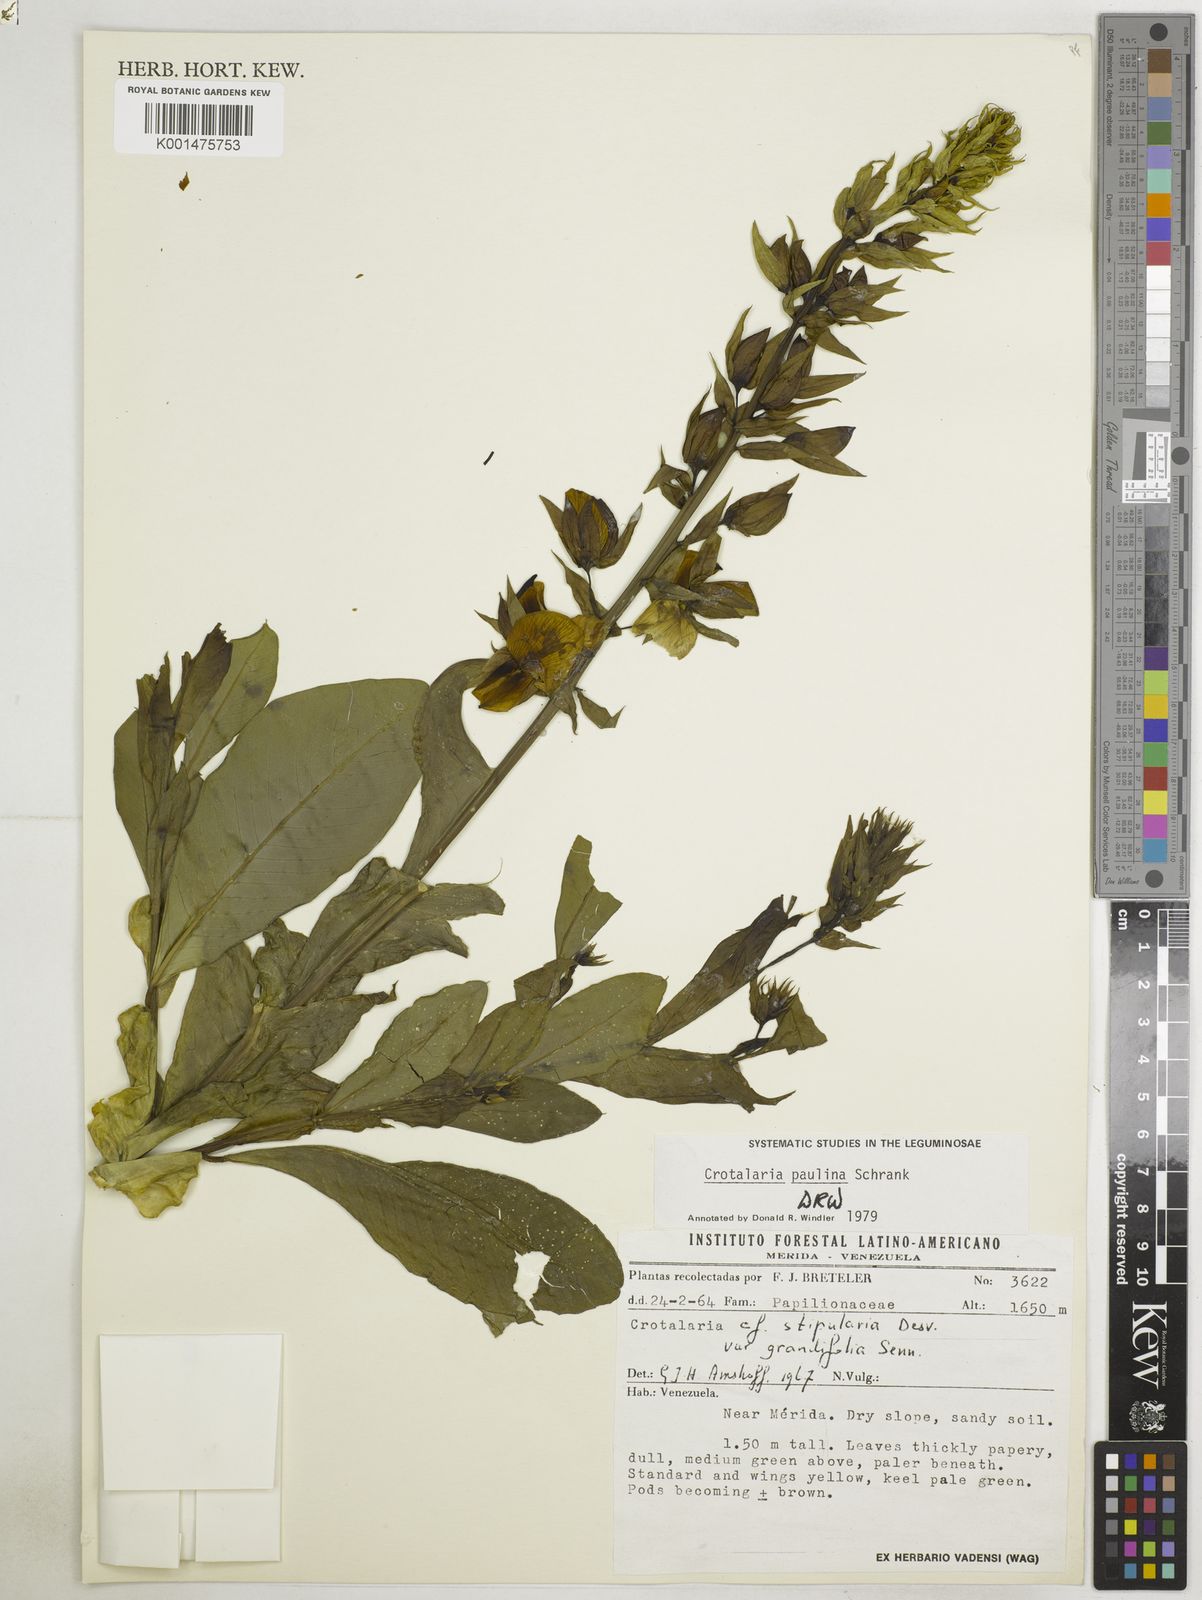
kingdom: Plantae
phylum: Tracheophyta
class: Magnoliopsida
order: Fabales
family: Fabaceae
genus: Crotalaria
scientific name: Crotalaria paulina
